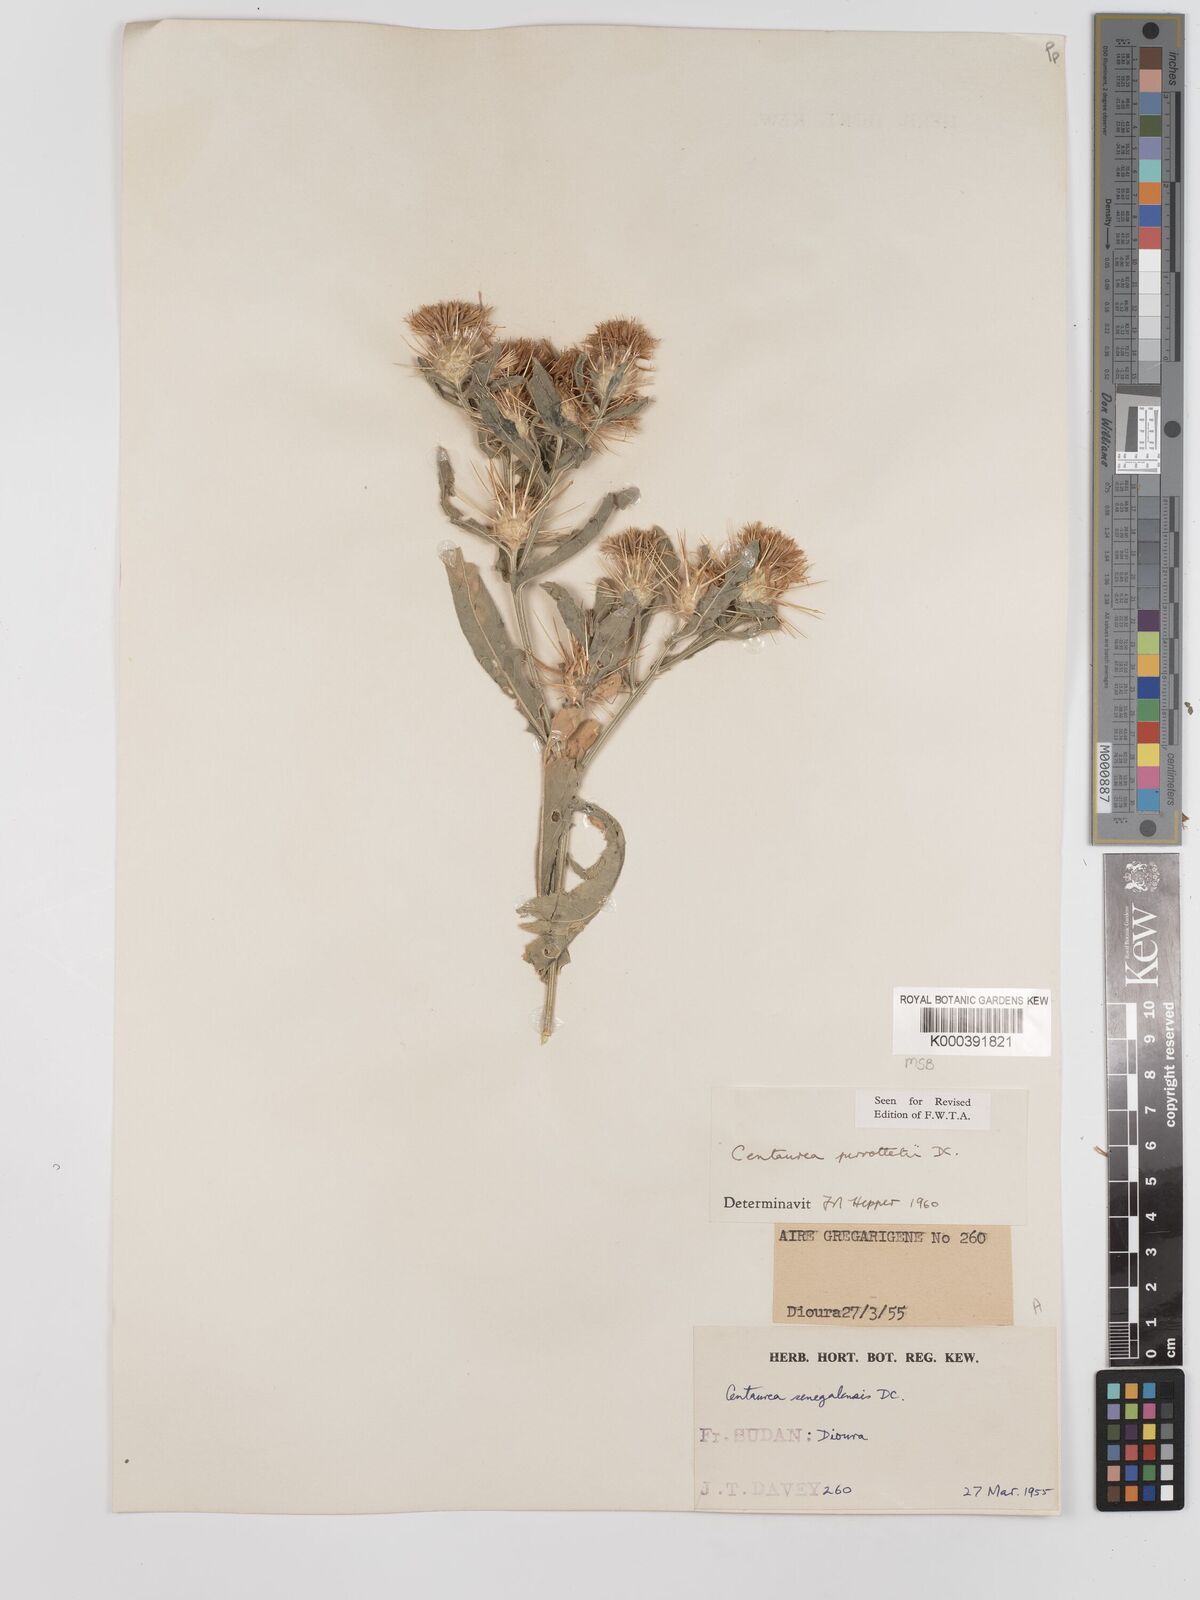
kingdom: Plantae
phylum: Tracheophyta
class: Magnoliopsida
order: Asterales
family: Asteraceae
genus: Centaurea
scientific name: Centaurea senegalensis
